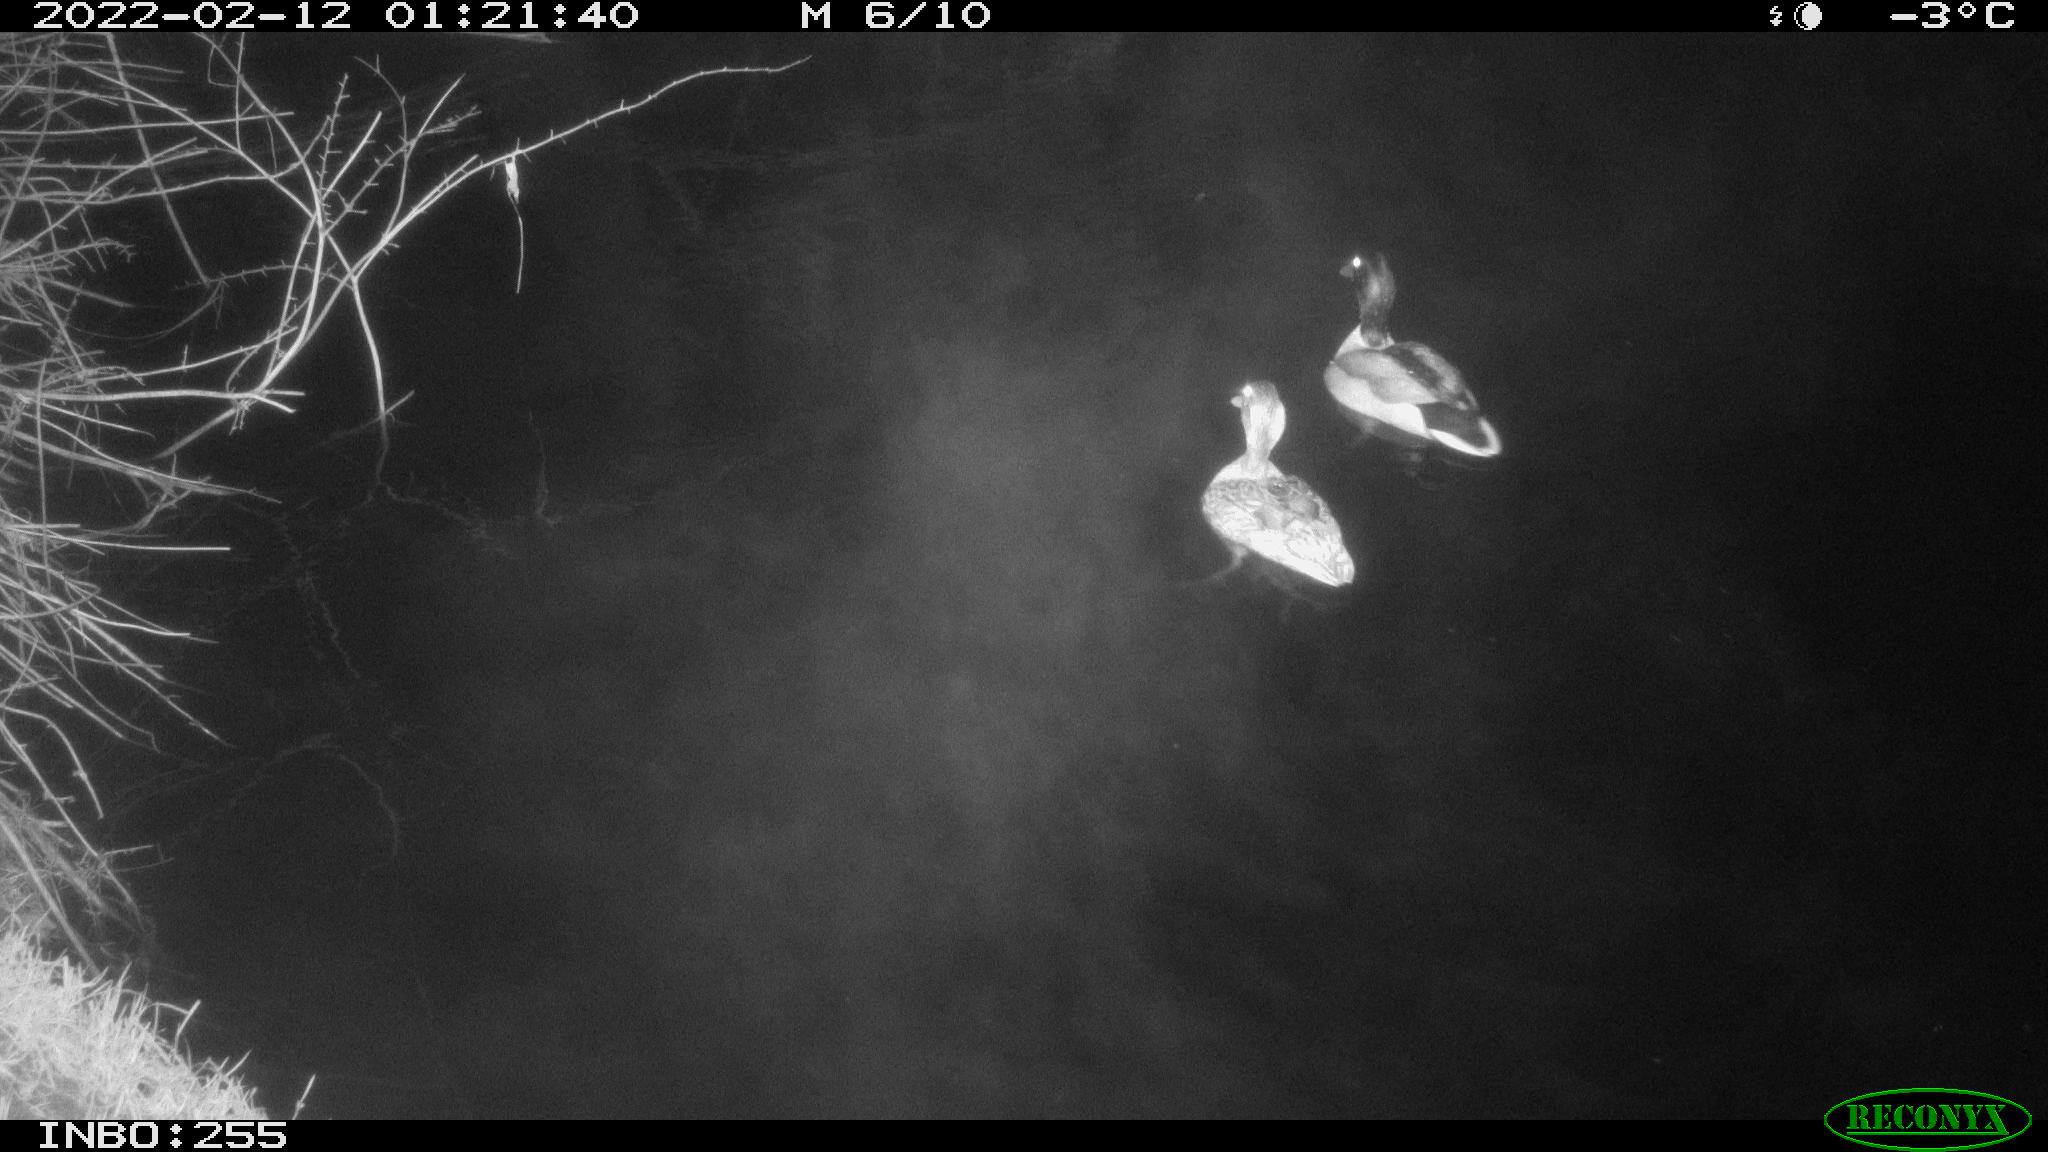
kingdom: Animalia
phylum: Chordata
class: Aves
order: Anseriformes
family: Anatidae
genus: Anas
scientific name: Anas platyrhynchos
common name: Mallard
